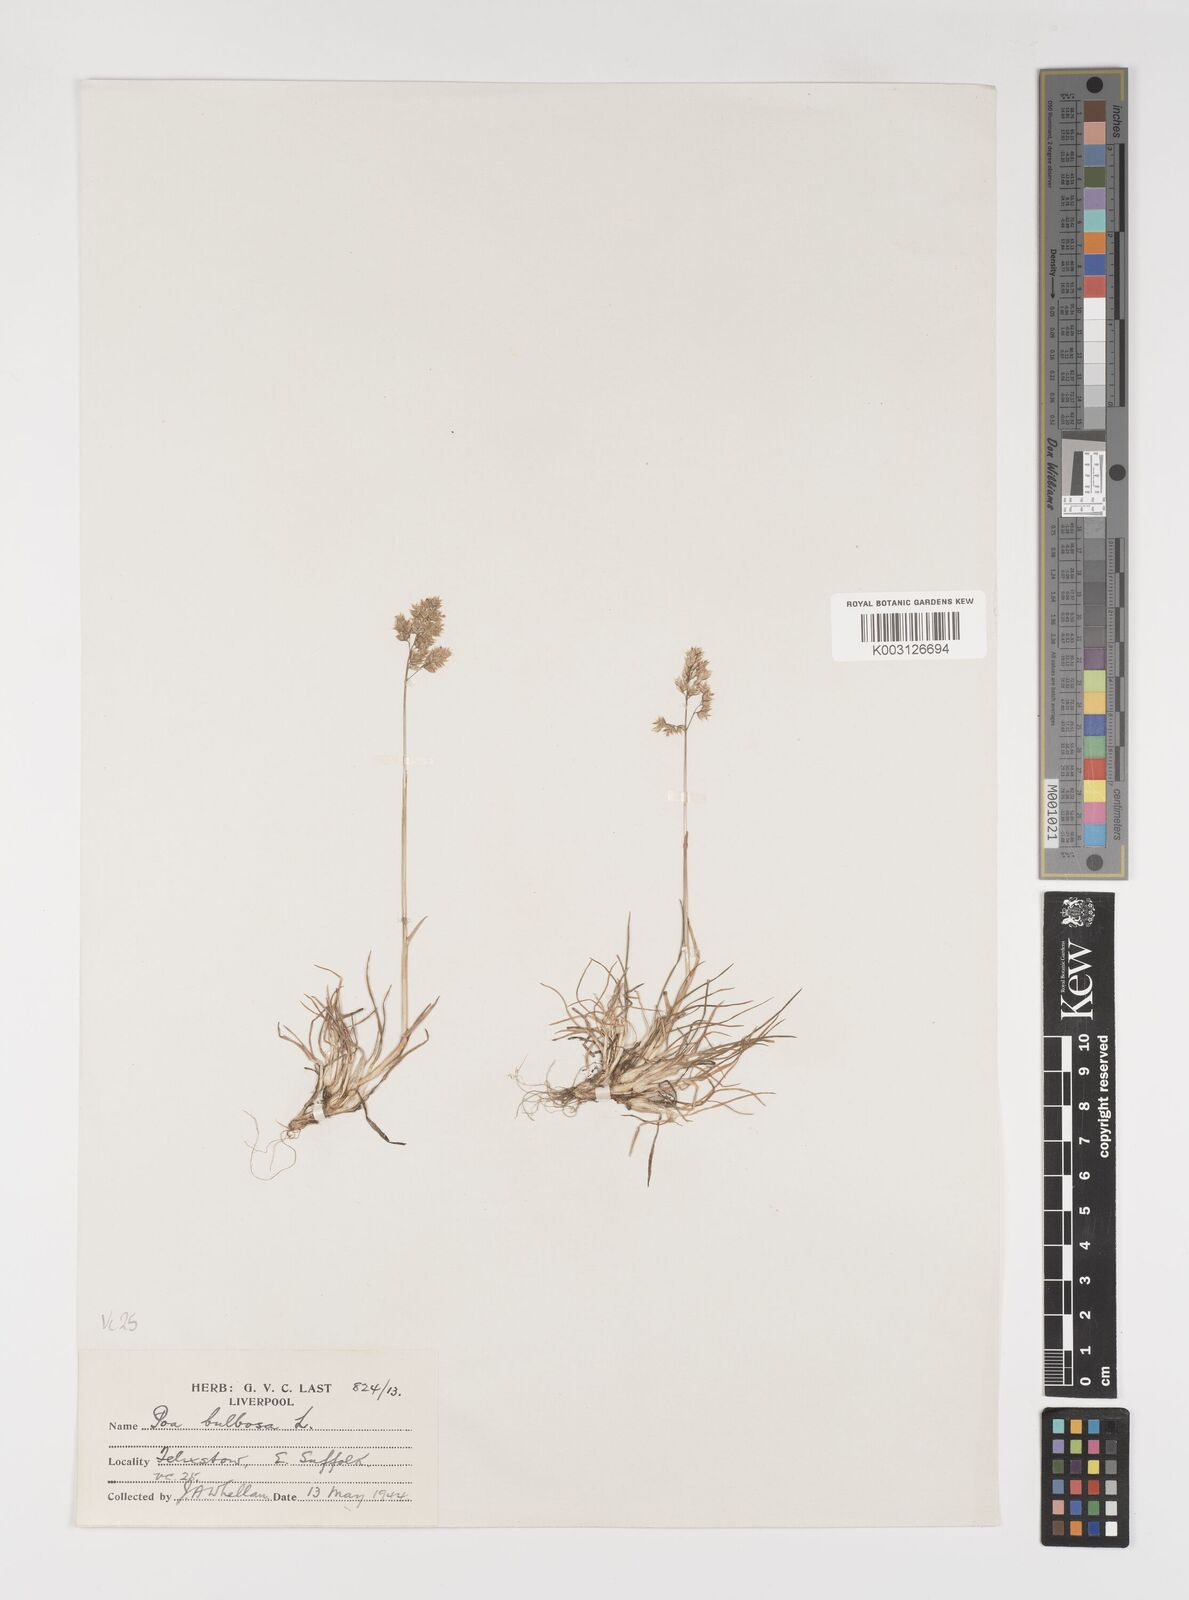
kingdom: Plantae
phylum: Tracheophyta
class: Liliopsida
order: Poales
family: Poaceae
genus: Poa
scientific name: Poa bulbosa
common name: Bulbous bluegrass
